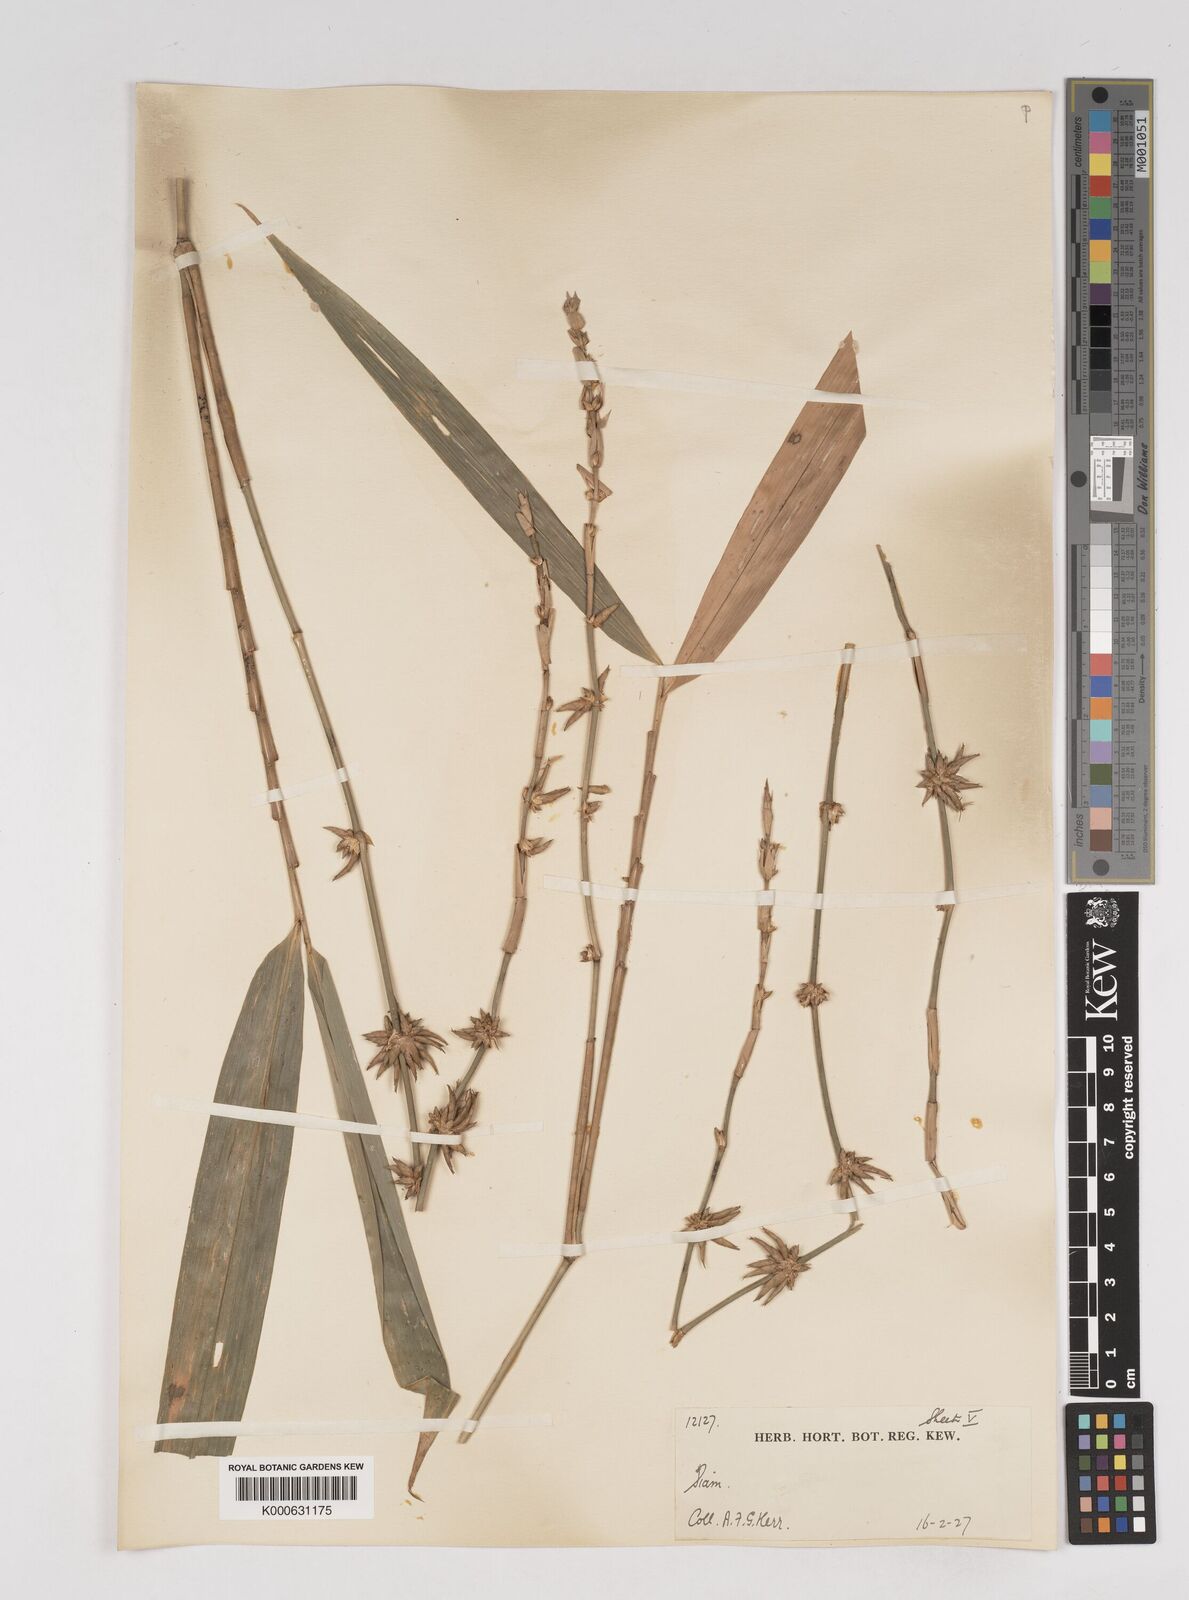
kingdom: Plantae
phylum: Tracheophyta
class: Liliopsida
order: Poales
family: Poaceae
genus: Gigantochloa
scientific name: Gigantochloa
